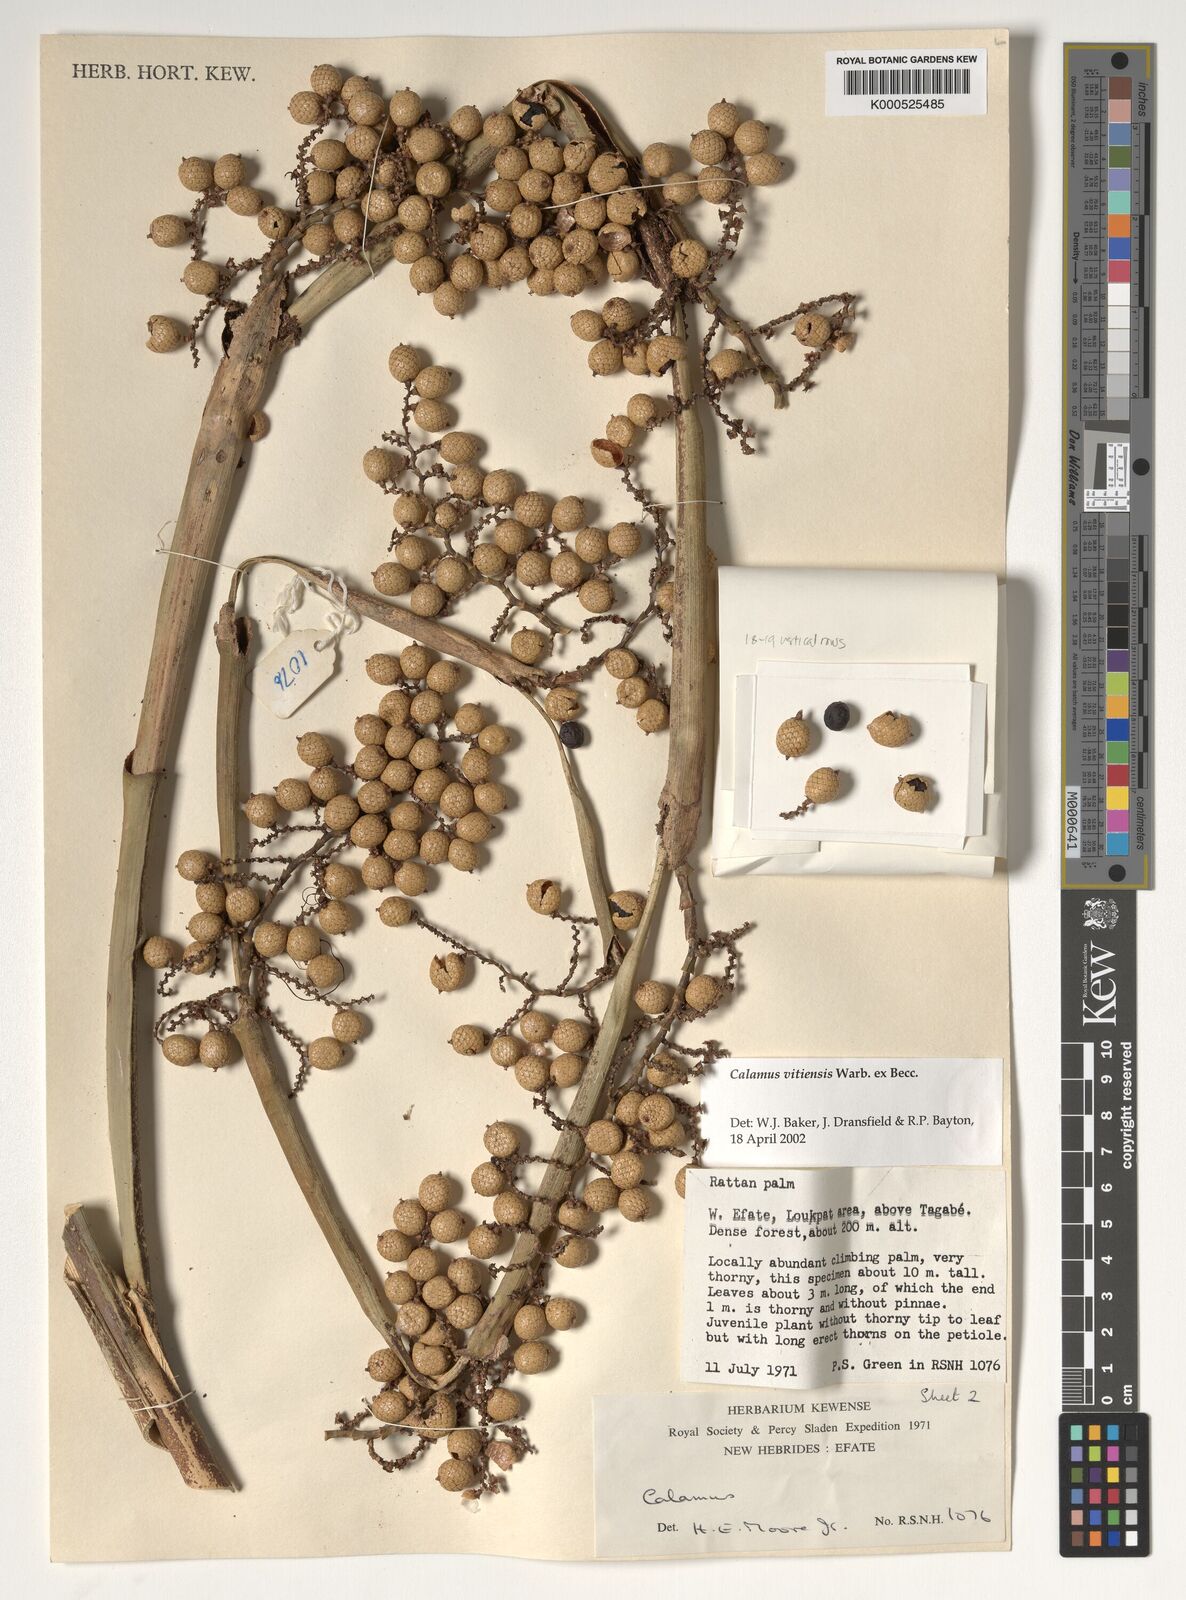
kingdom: Plantae
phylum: Tracheophyta
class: Liliopsida
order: Arecales
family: Arecaceae
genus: Calamus
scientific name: Calamus vitiensis
